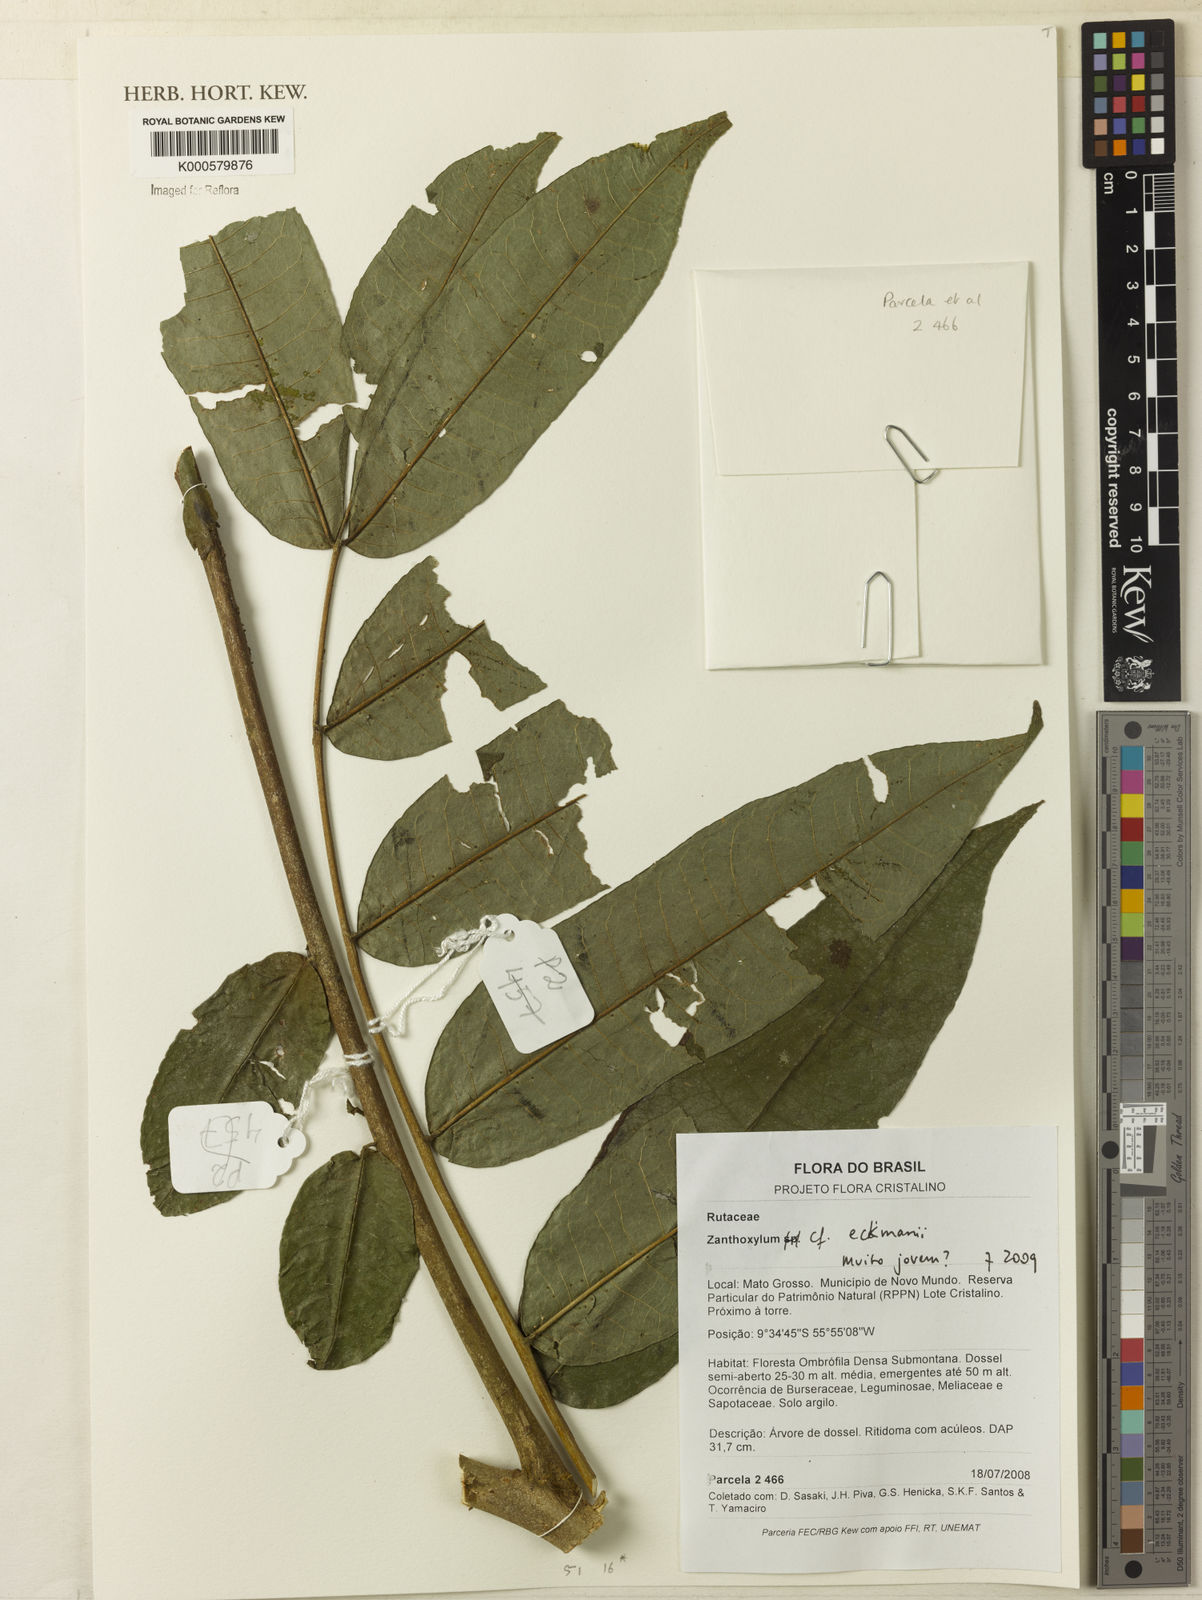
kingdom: Plantae
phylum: Tracheophyta
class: Magnoliopsida
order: Sapindales
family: Rutaceae
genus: Zanthoxylum
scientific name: Zanthoxylum ekmanii
